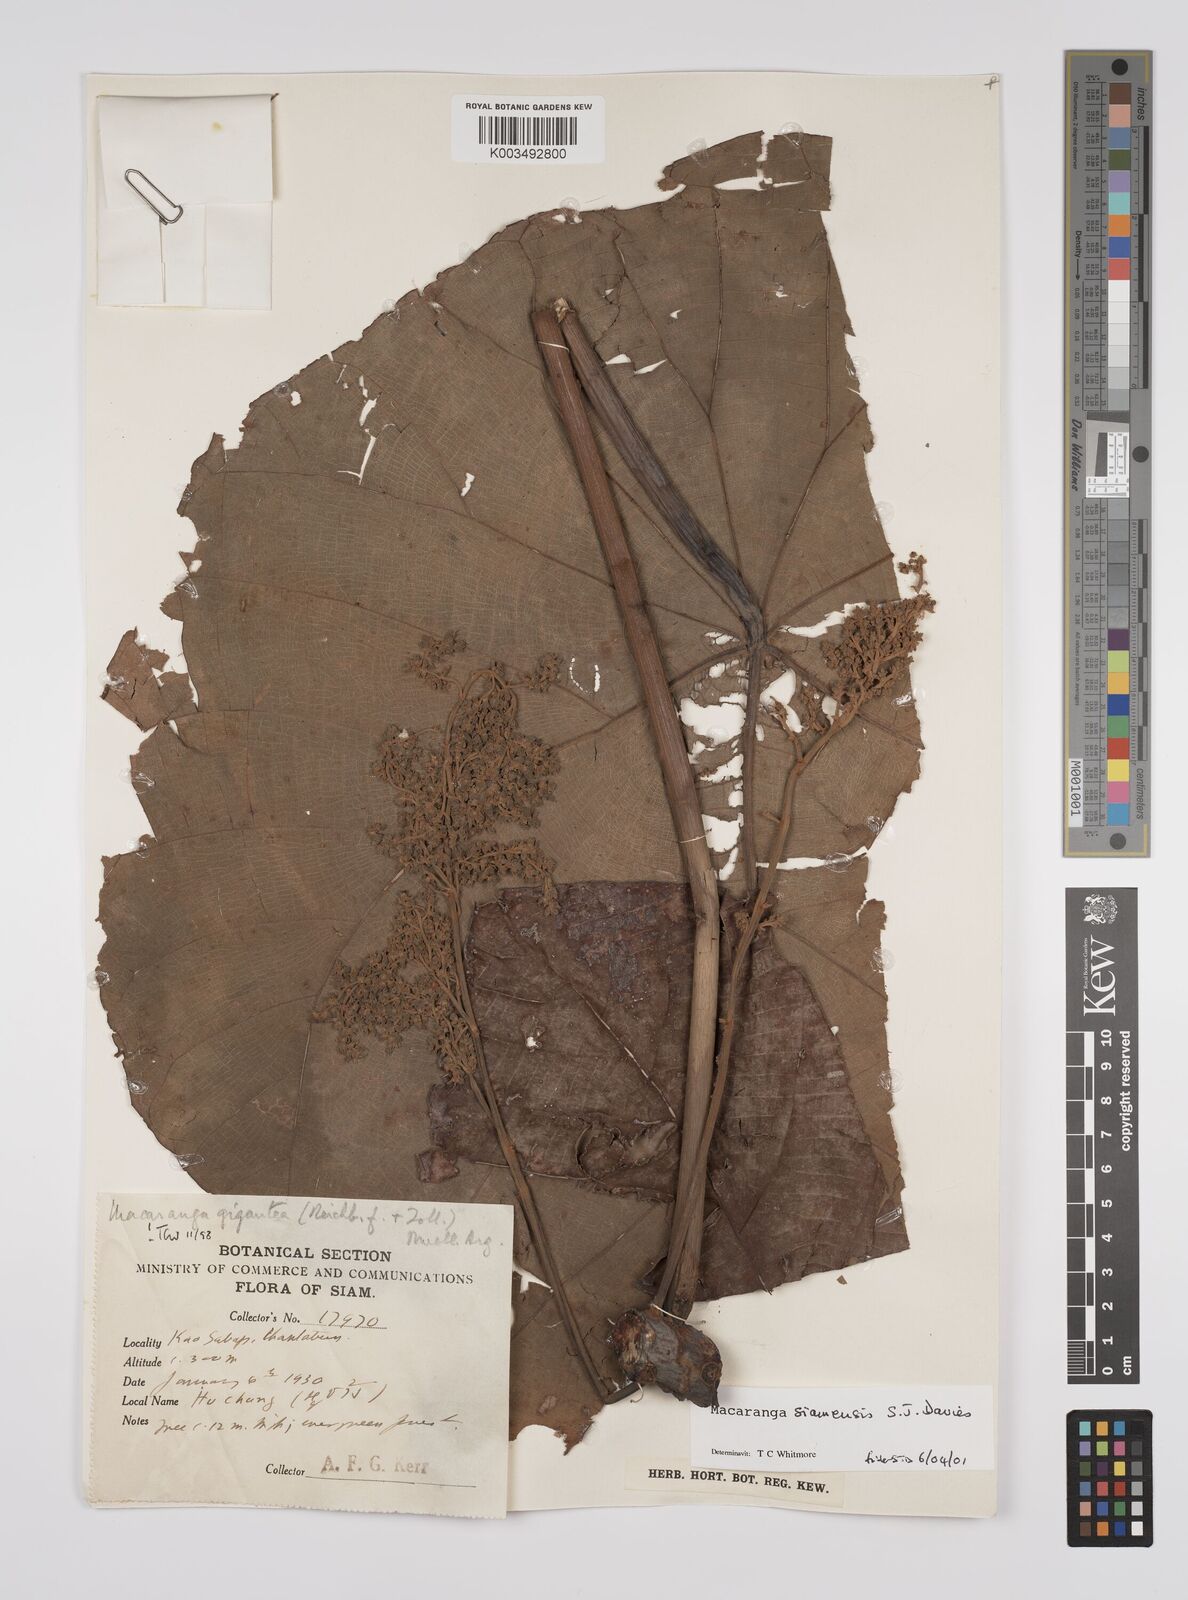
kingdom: Plantae
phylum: Tracheophyta
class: Magnoliopsida
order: Malpighiales
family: Euphorbiaceae
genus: Macaranga
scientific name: Macaranga siamensis
